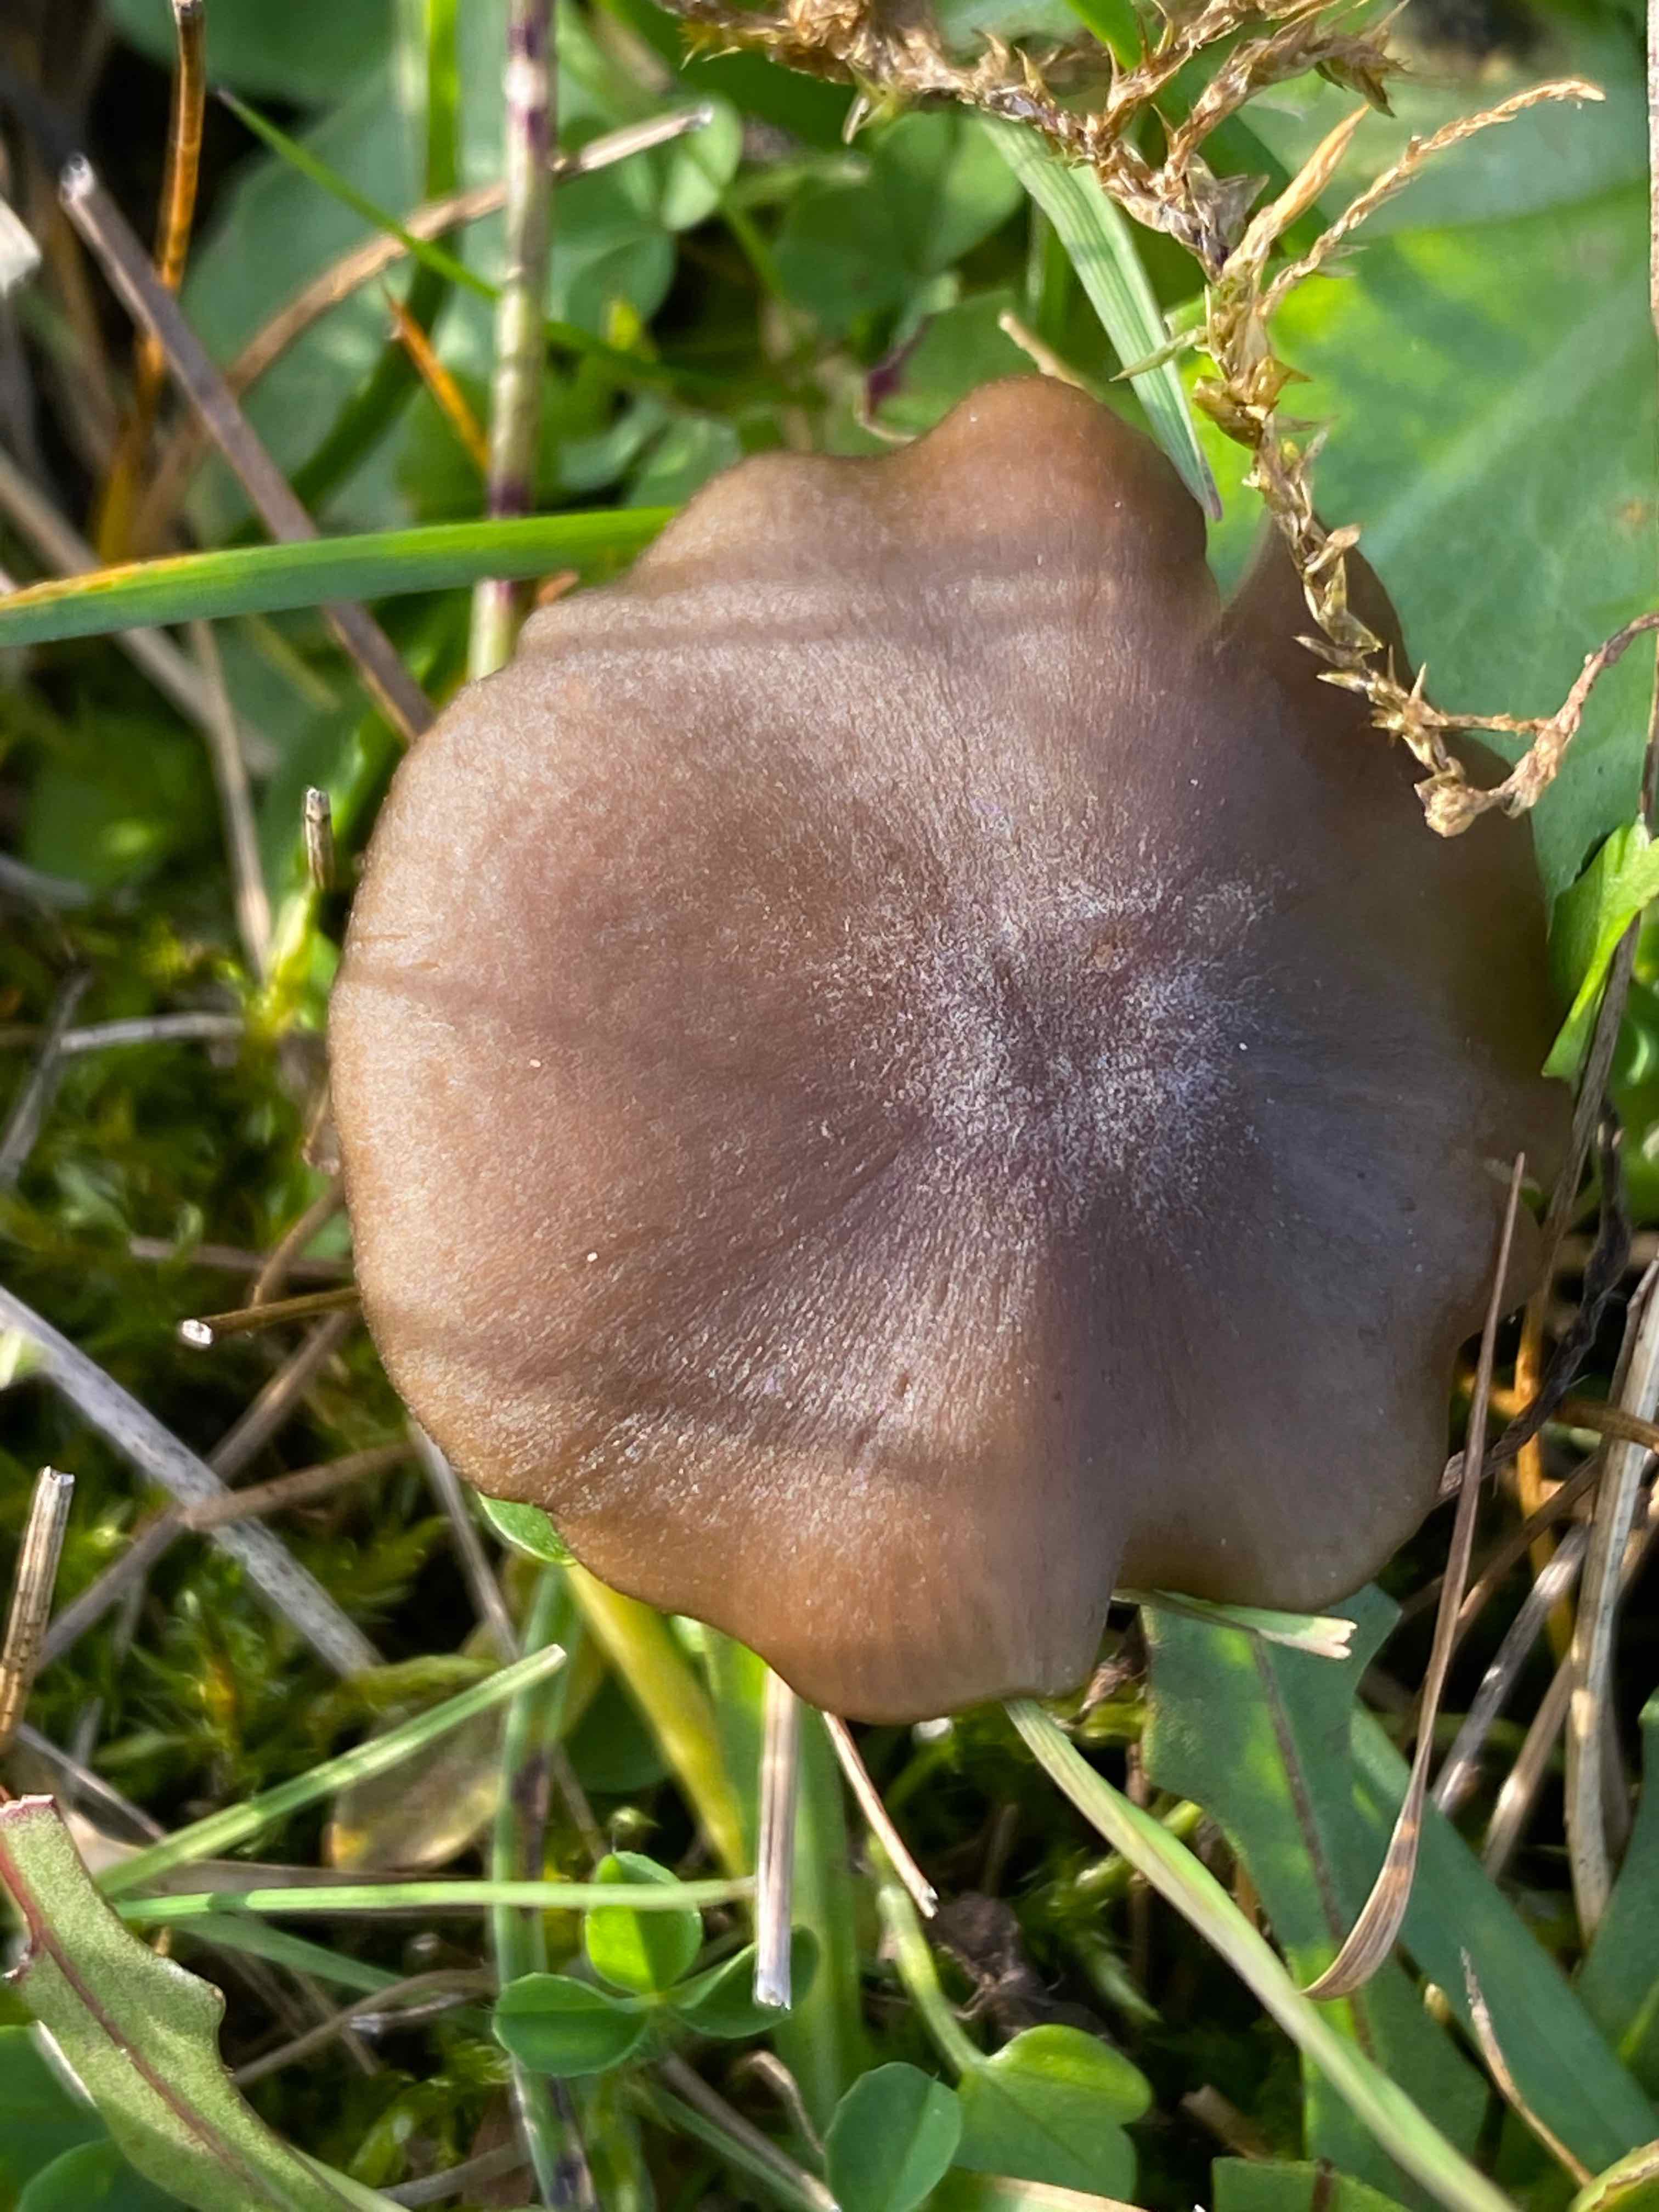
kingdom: Fungi
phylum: Basidiomycota
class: Agaricomycetes
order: Agaricales
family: Entolomataceae
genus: Entoloma
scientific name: Entoloma
